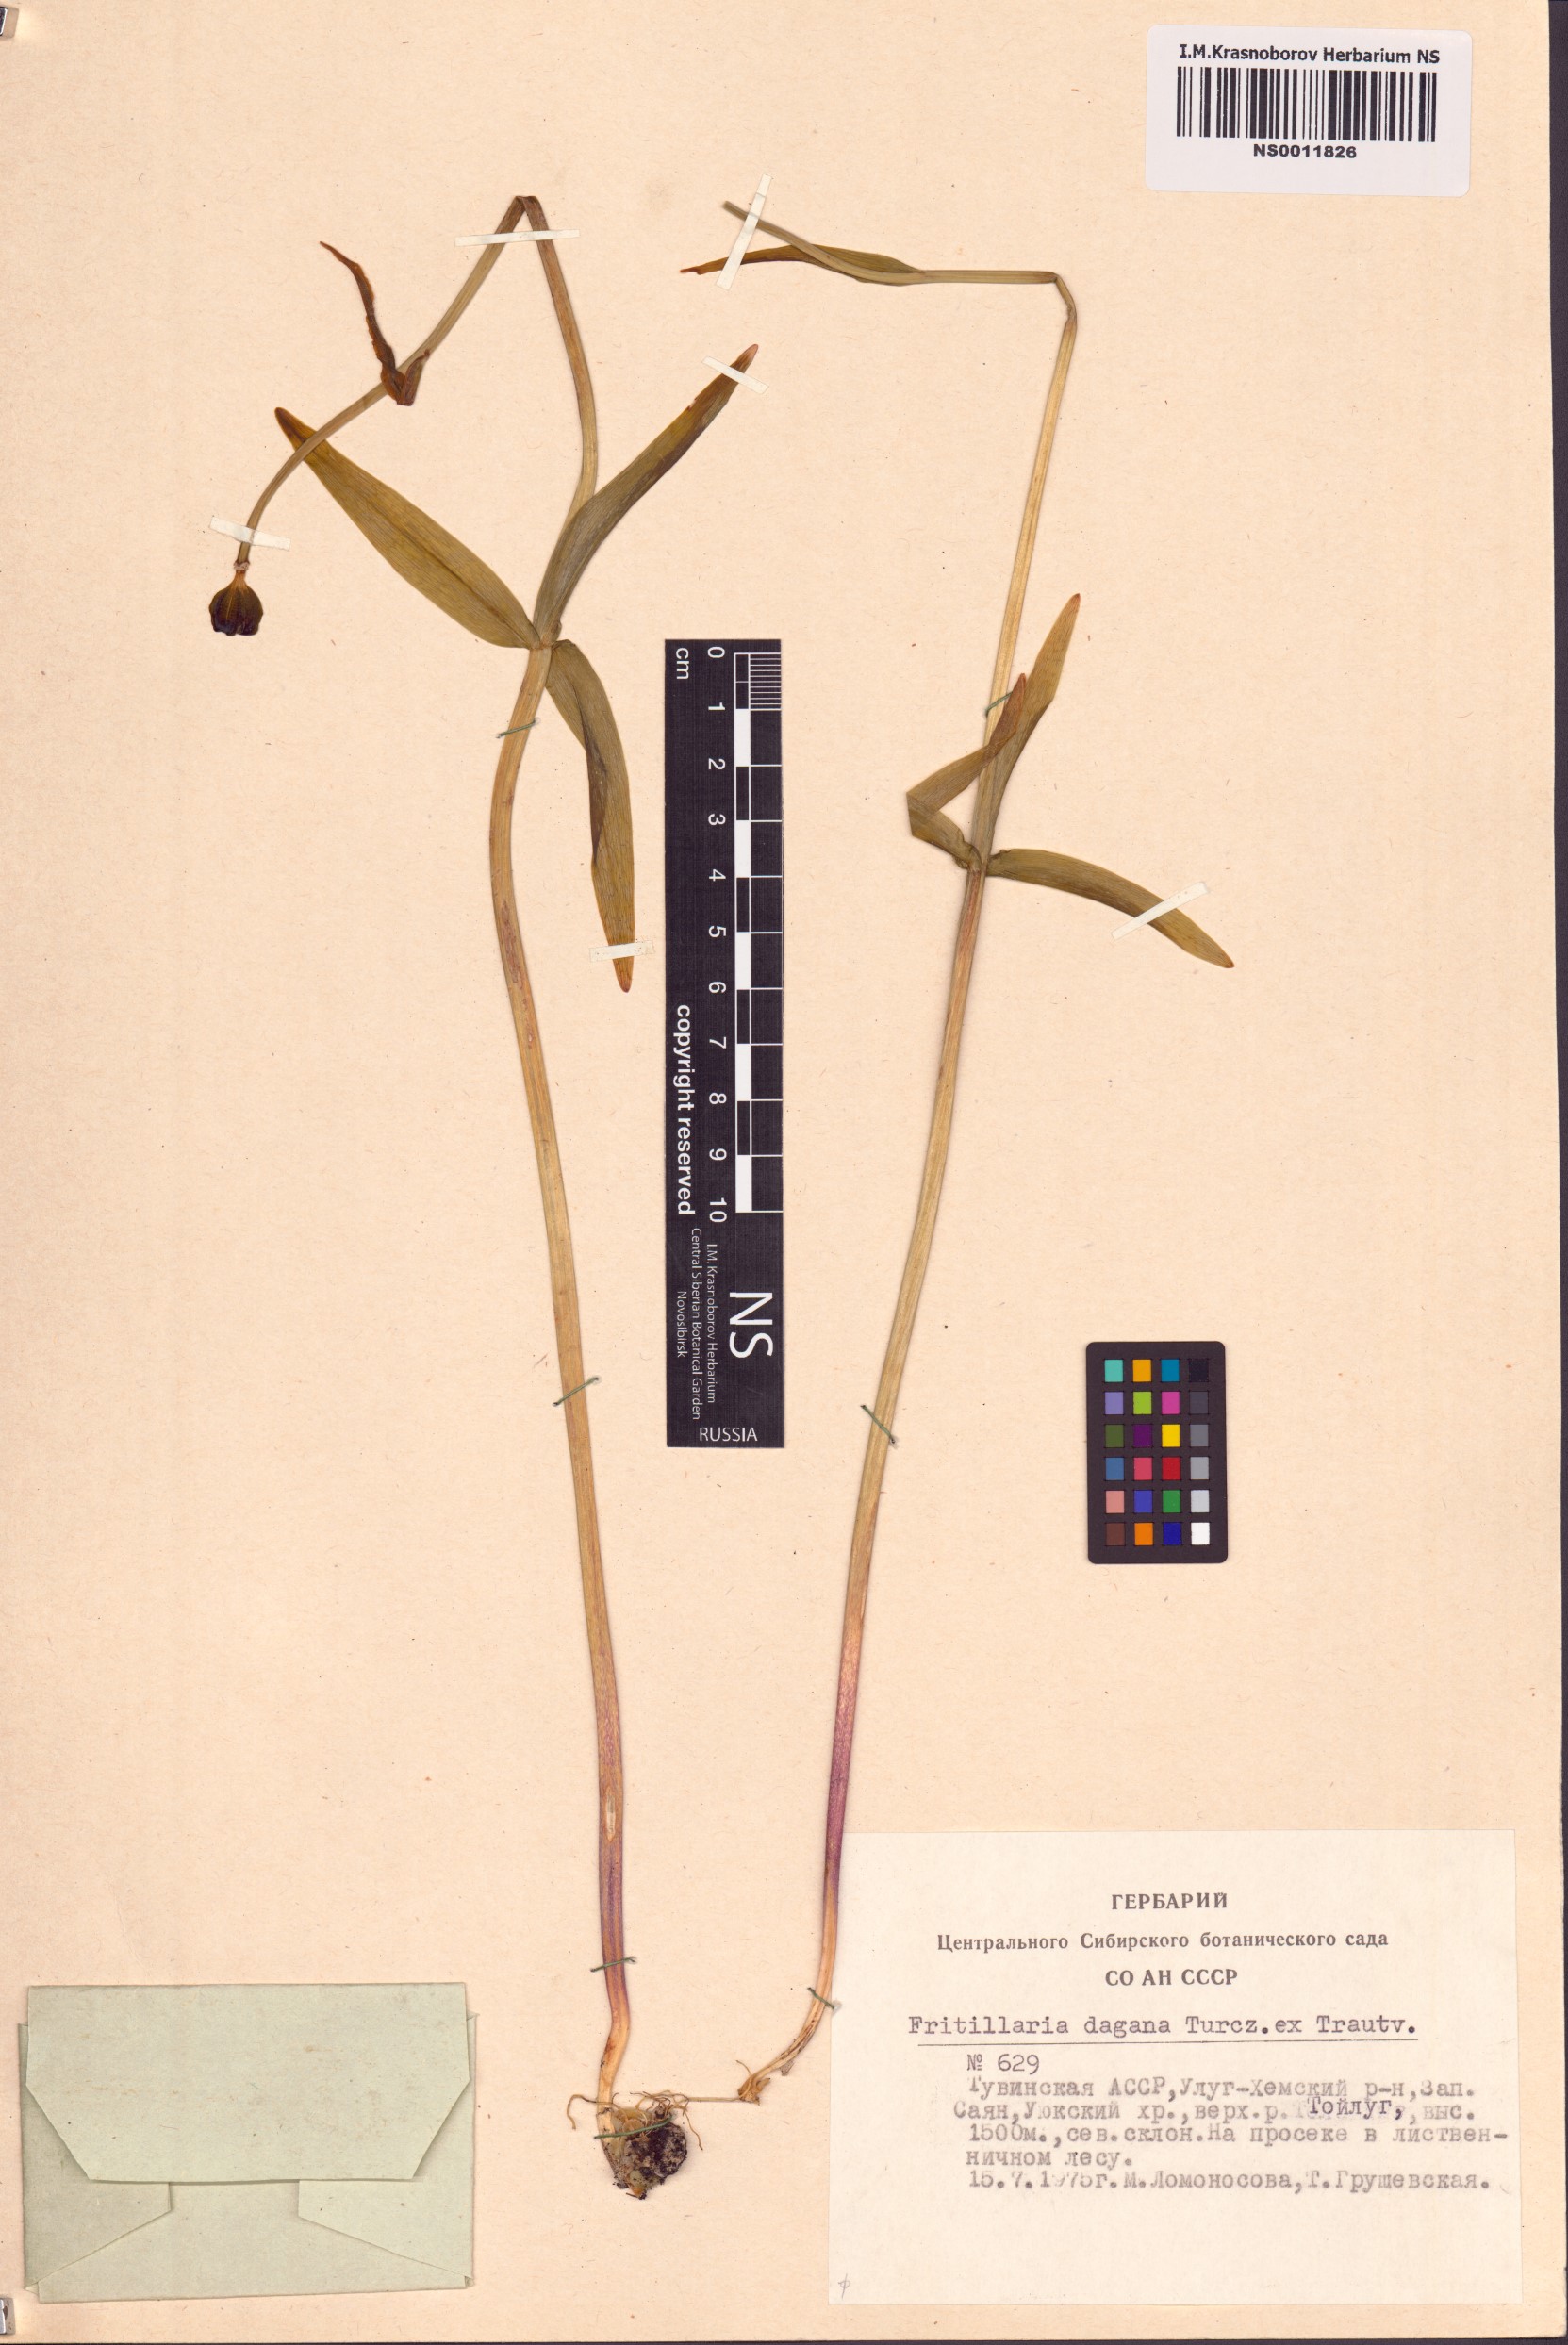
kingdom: Plantae
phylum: Tracheophyta
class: Liliopsida
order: Liliales
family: Liliaceae
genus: Fritillaria
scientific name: Fritillaria dagana
